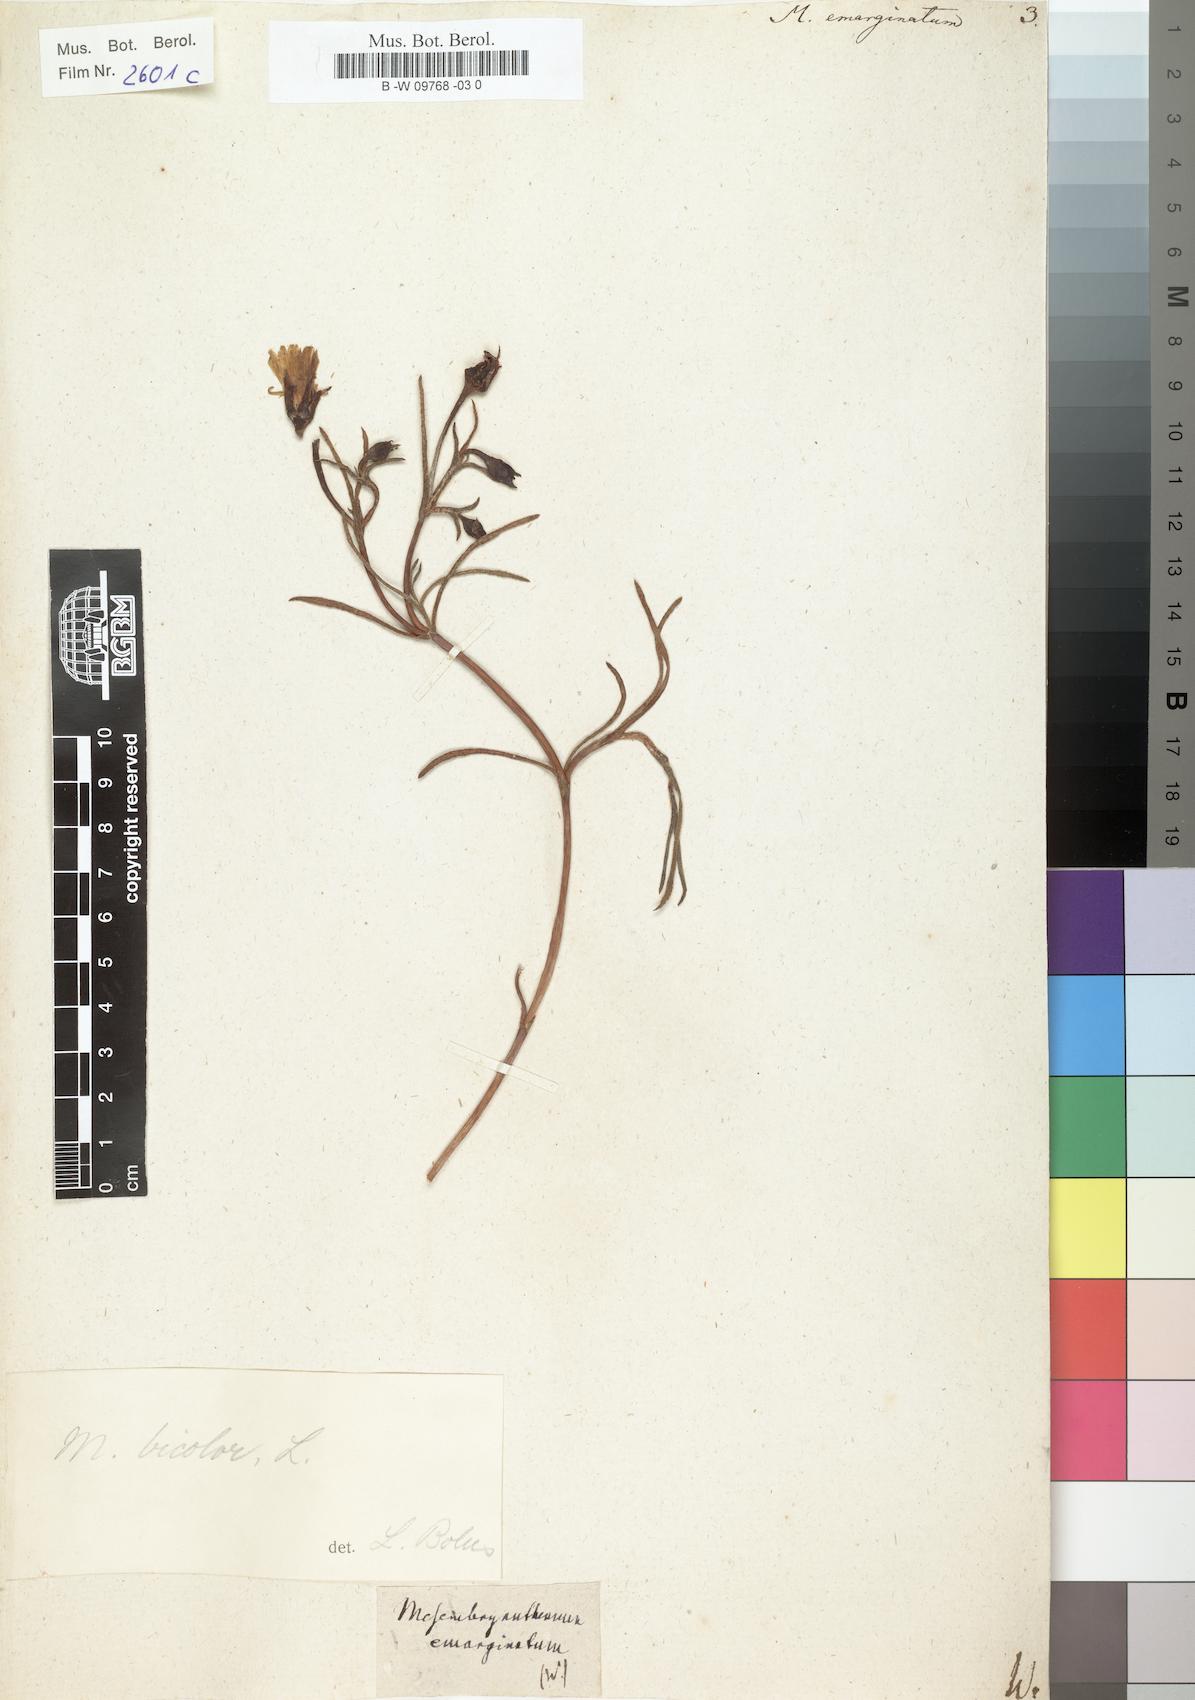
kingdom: Plantae
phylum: Tracheophyta
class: Magnoliopsida
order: Caryophyllales
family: Aizoaceae
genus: Lampranthus
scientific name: Lampranthus emarginatus
